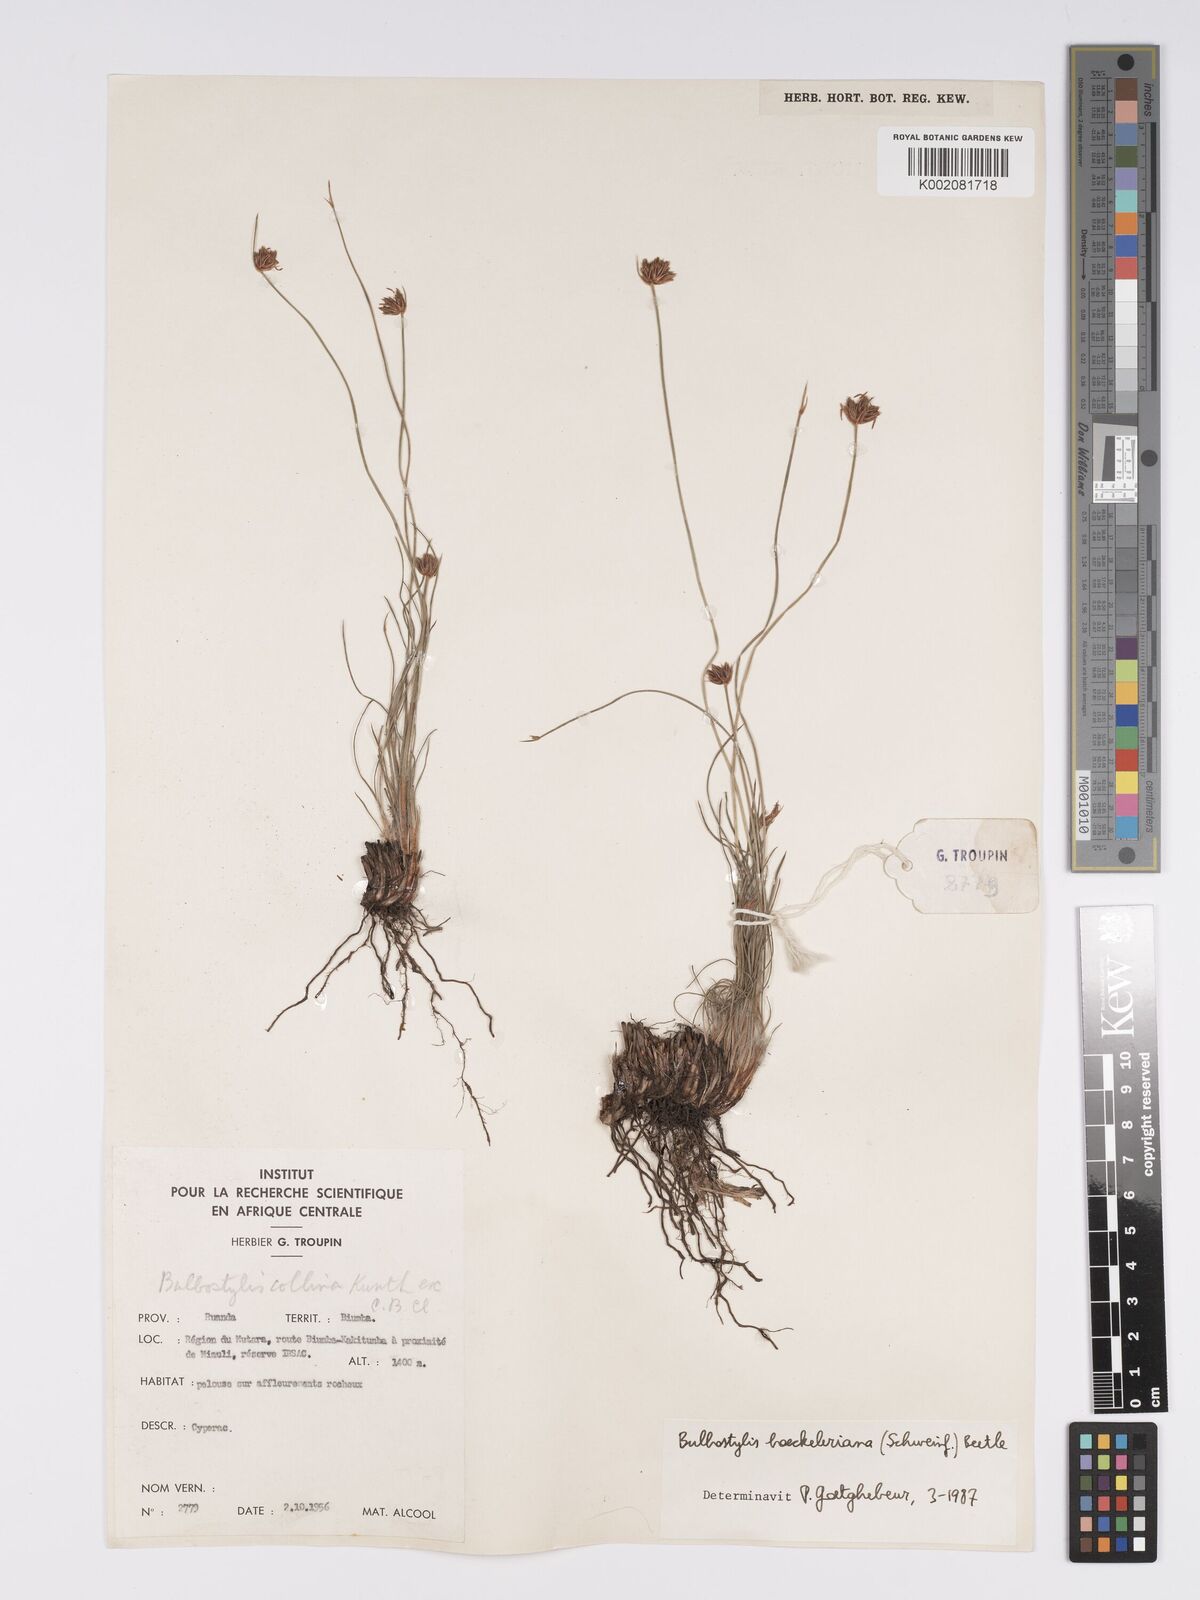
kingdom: Plantae
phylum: Tracheophyta
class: Liliopsida
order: Poales
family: Cyperaceae
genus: Bulbostylis
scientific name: Bulbostylis boeckeleriana
